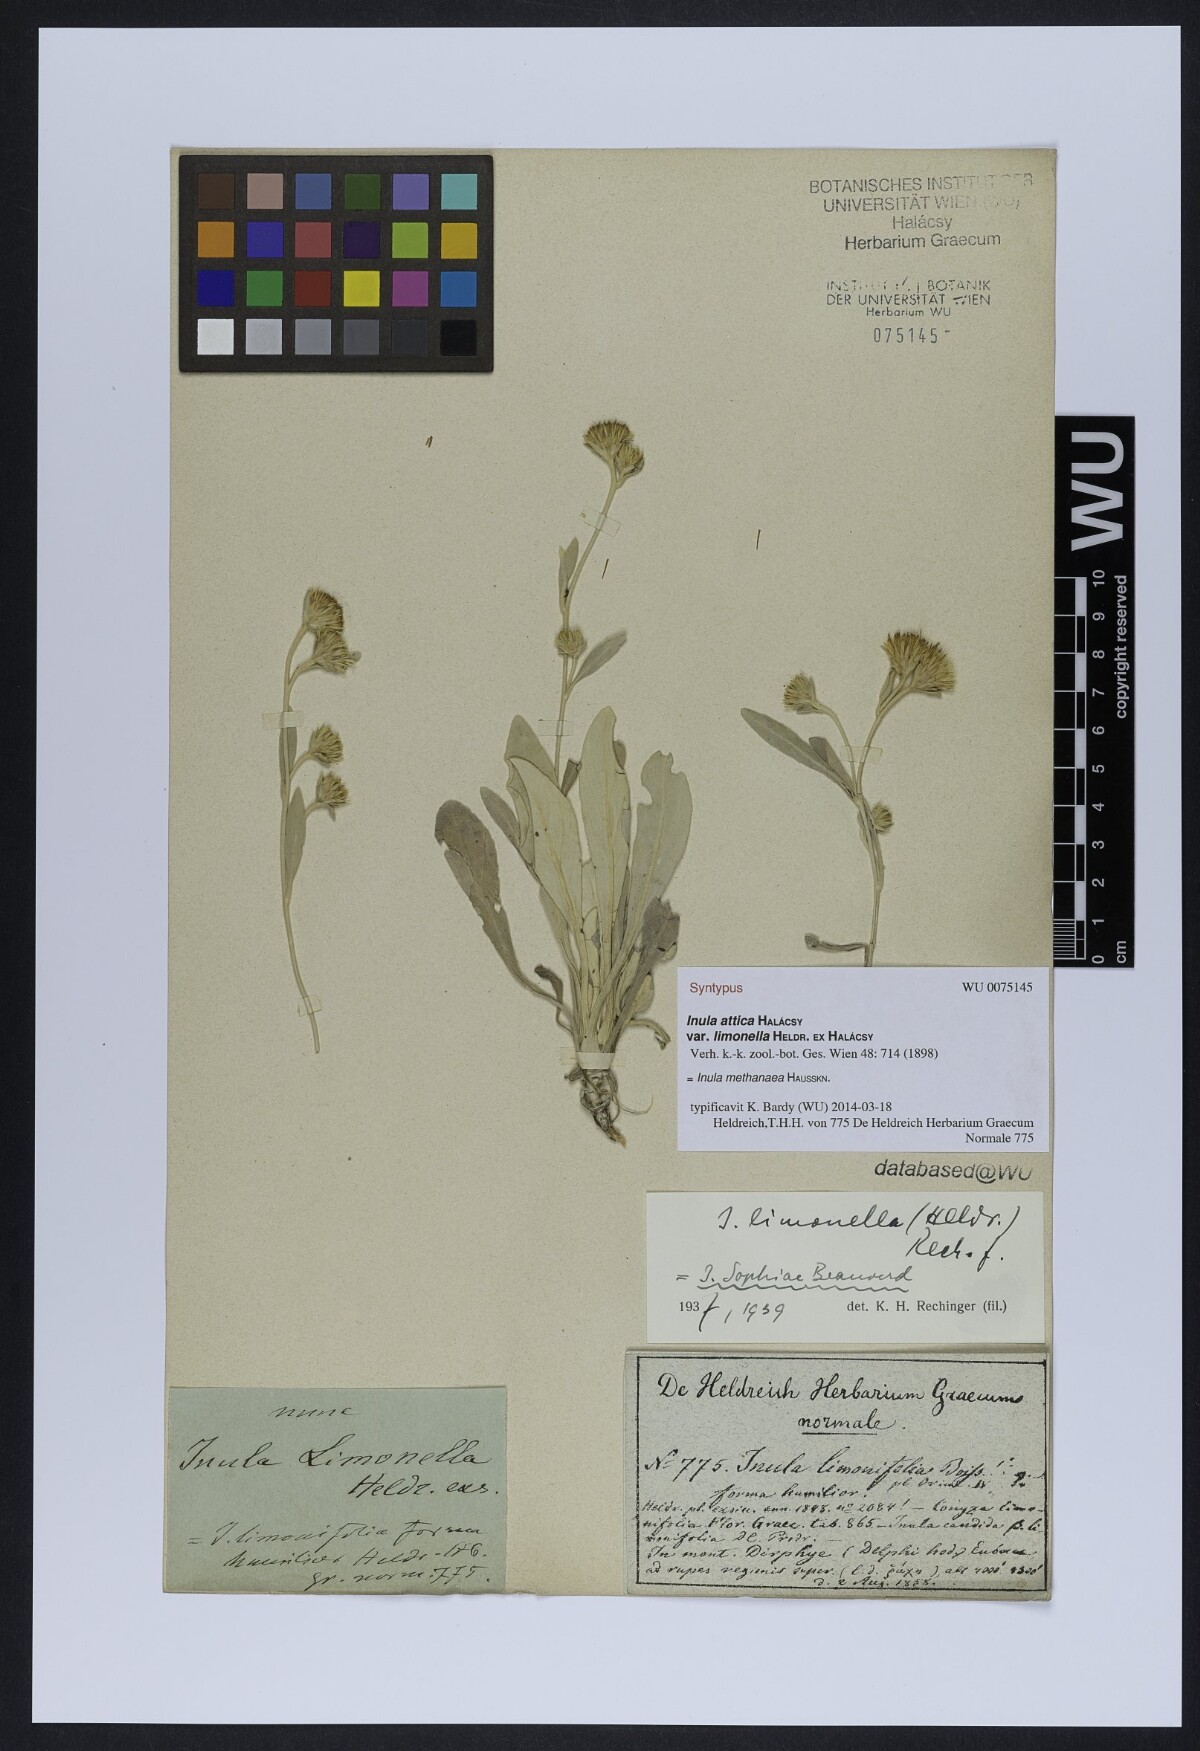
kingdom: Plantae
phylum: Tracheophyta
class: Magnoliopsida
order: Asterales
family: Asteraceae
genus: Pentanema
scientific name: Pentanema verbascifolium
